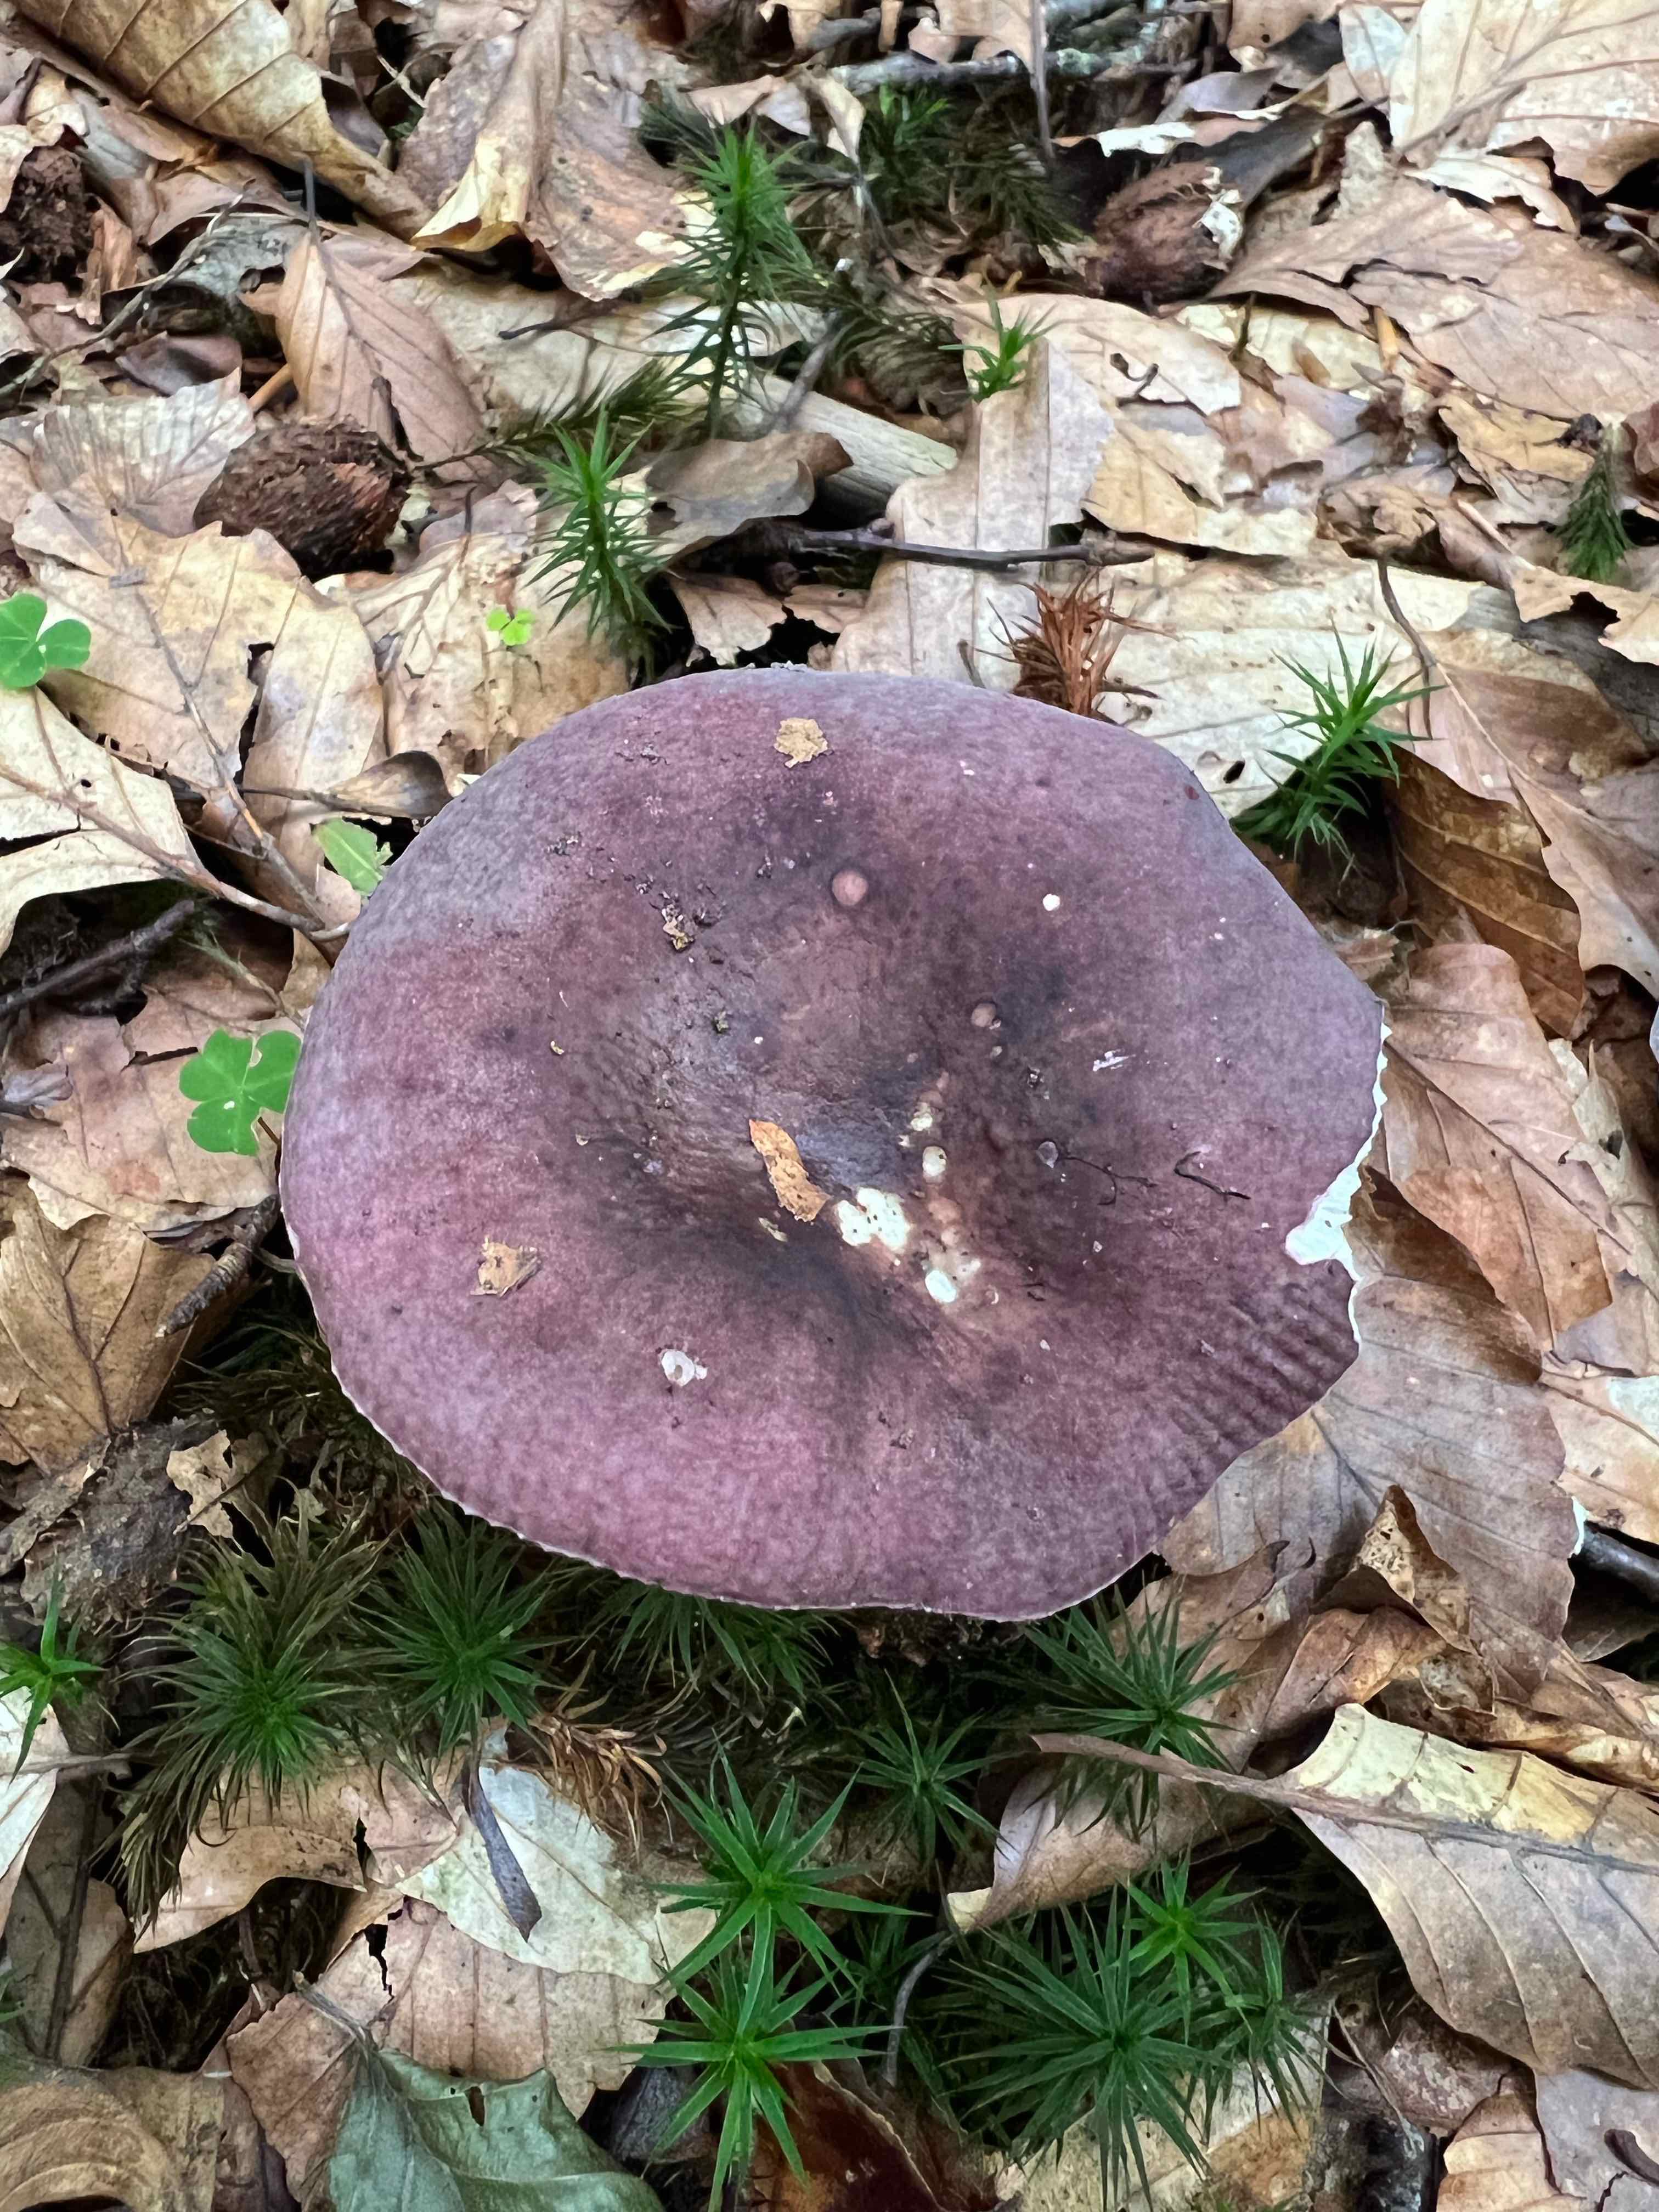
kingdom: Fungi
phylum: Basidiomycota
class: Agaricomycetes
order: Russulales
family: Russulaceae
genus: Russula
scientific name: Russula
